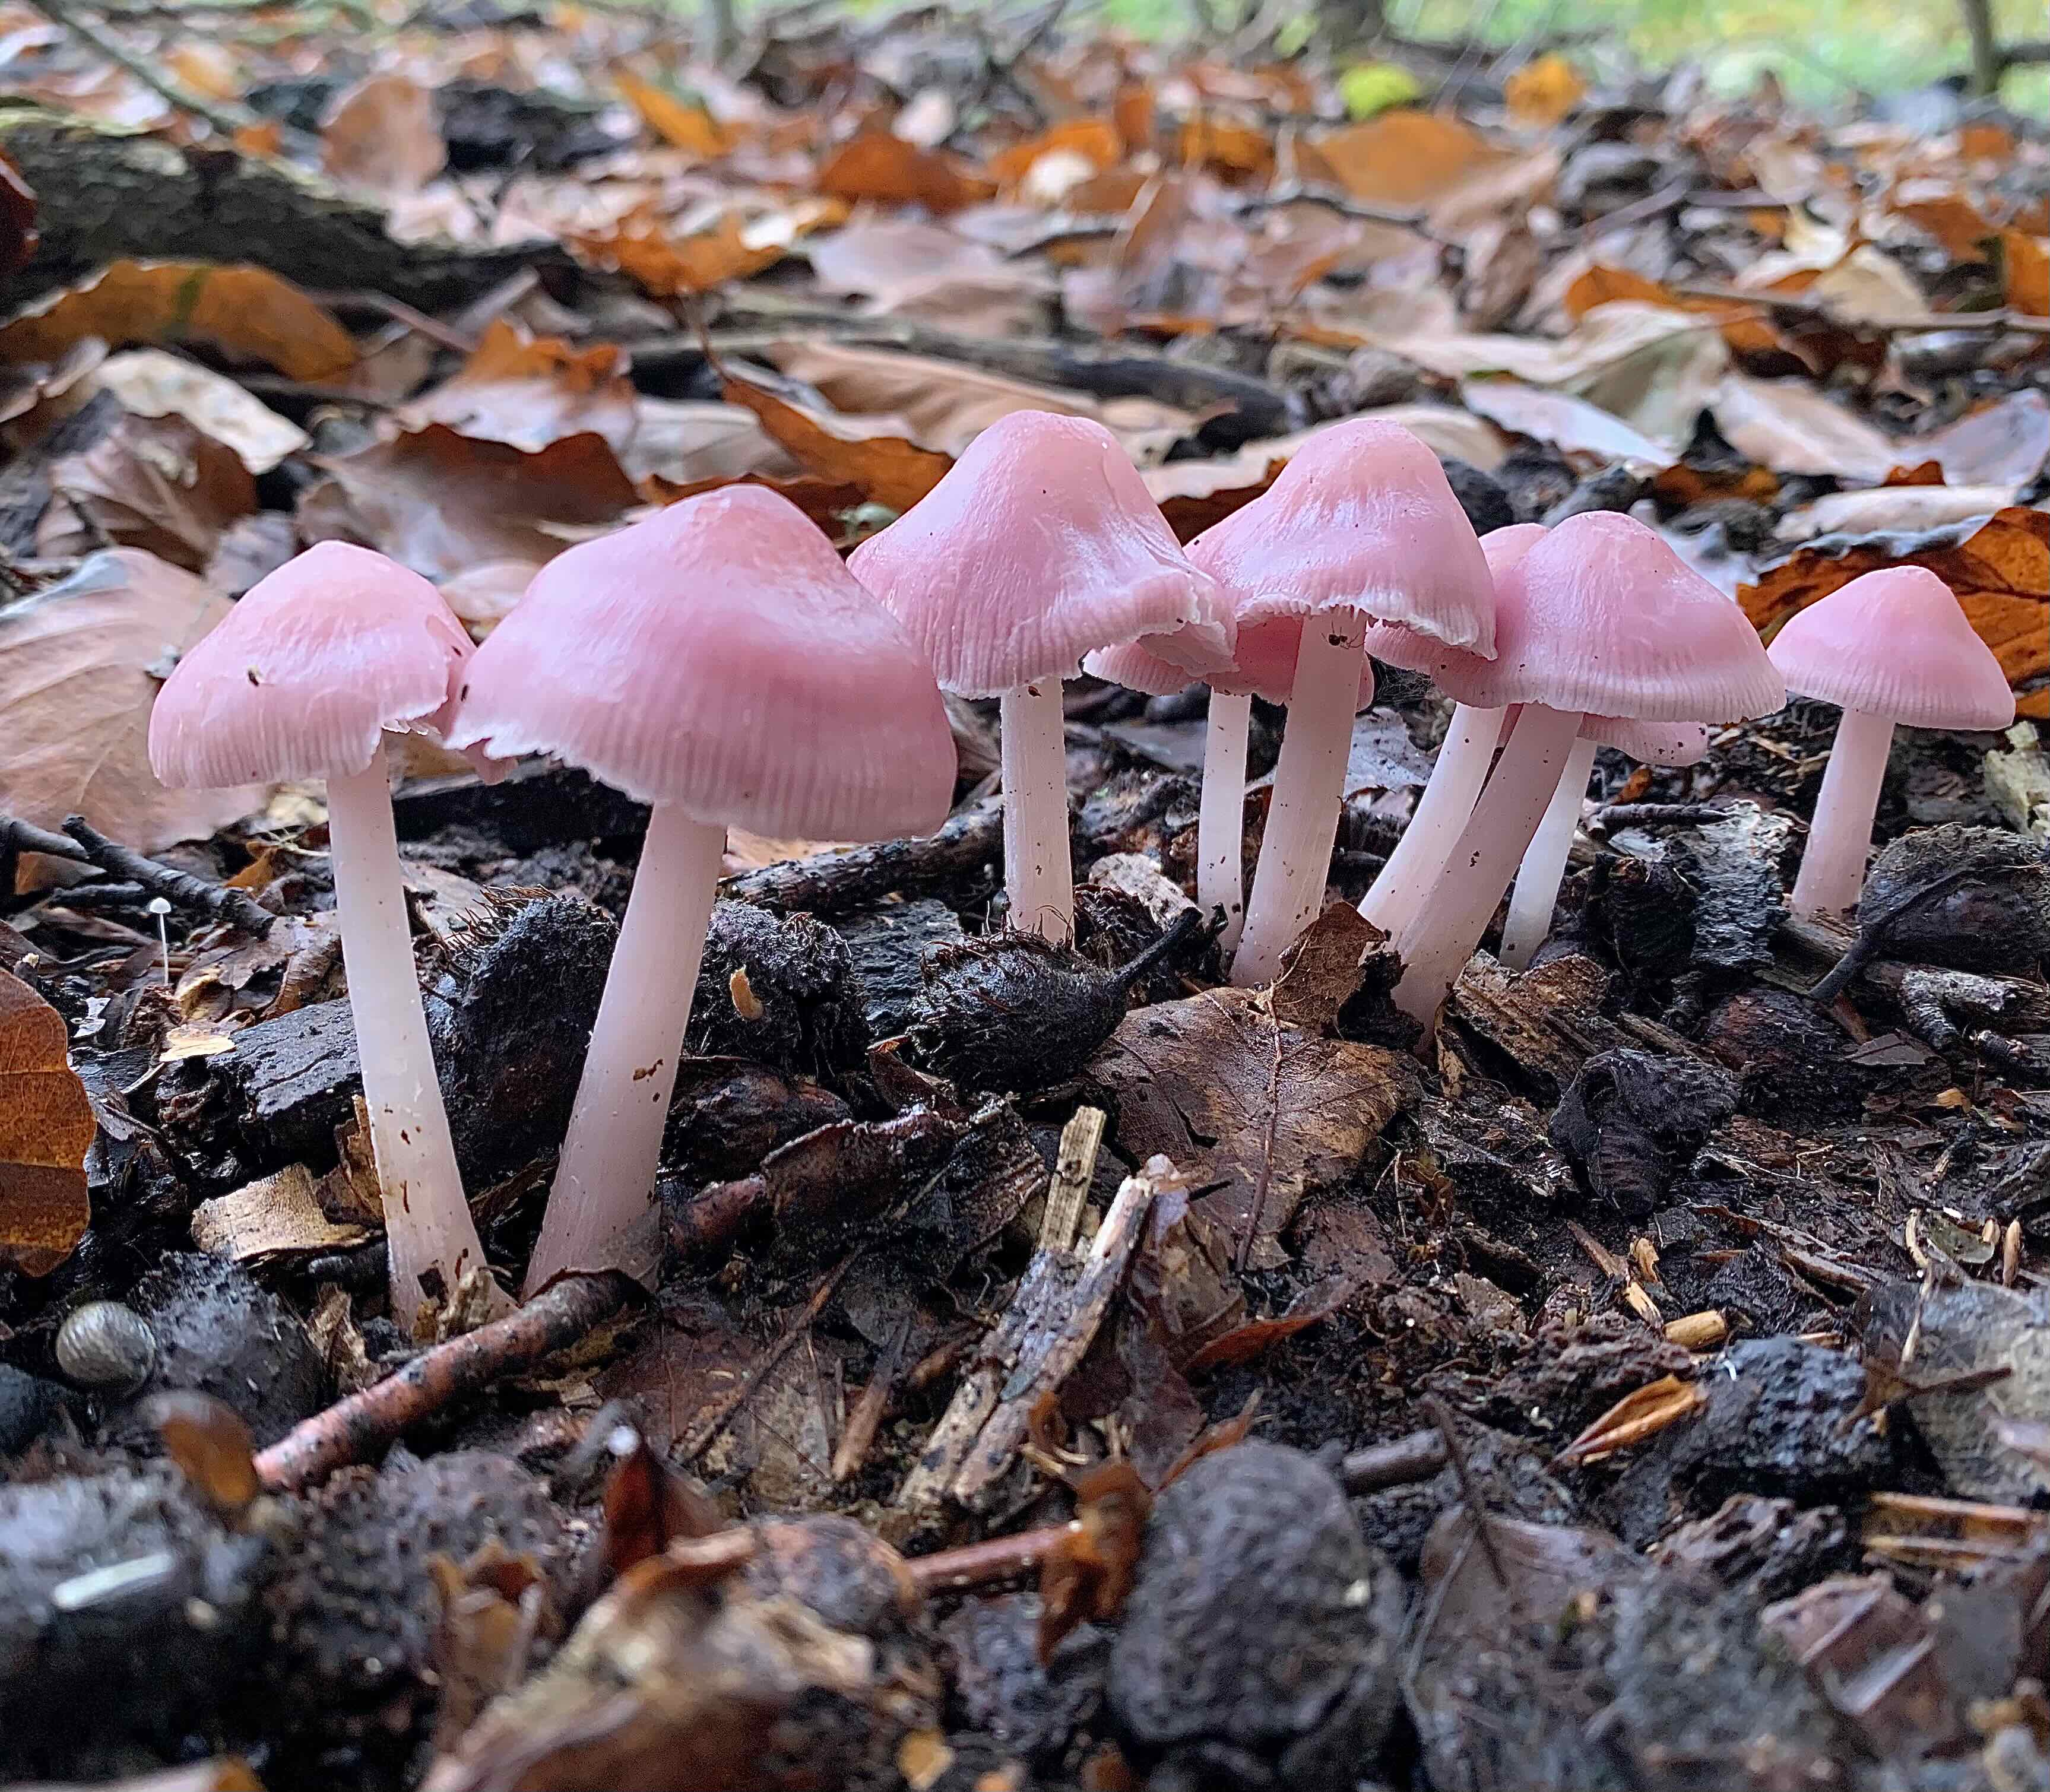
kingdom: Fungi
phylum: Basidiomycota
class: Agaricomycetes
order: Agaricales
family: Mycenaceae
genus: Mycena
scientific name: Mycena rosea
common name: rosa huesvamp
